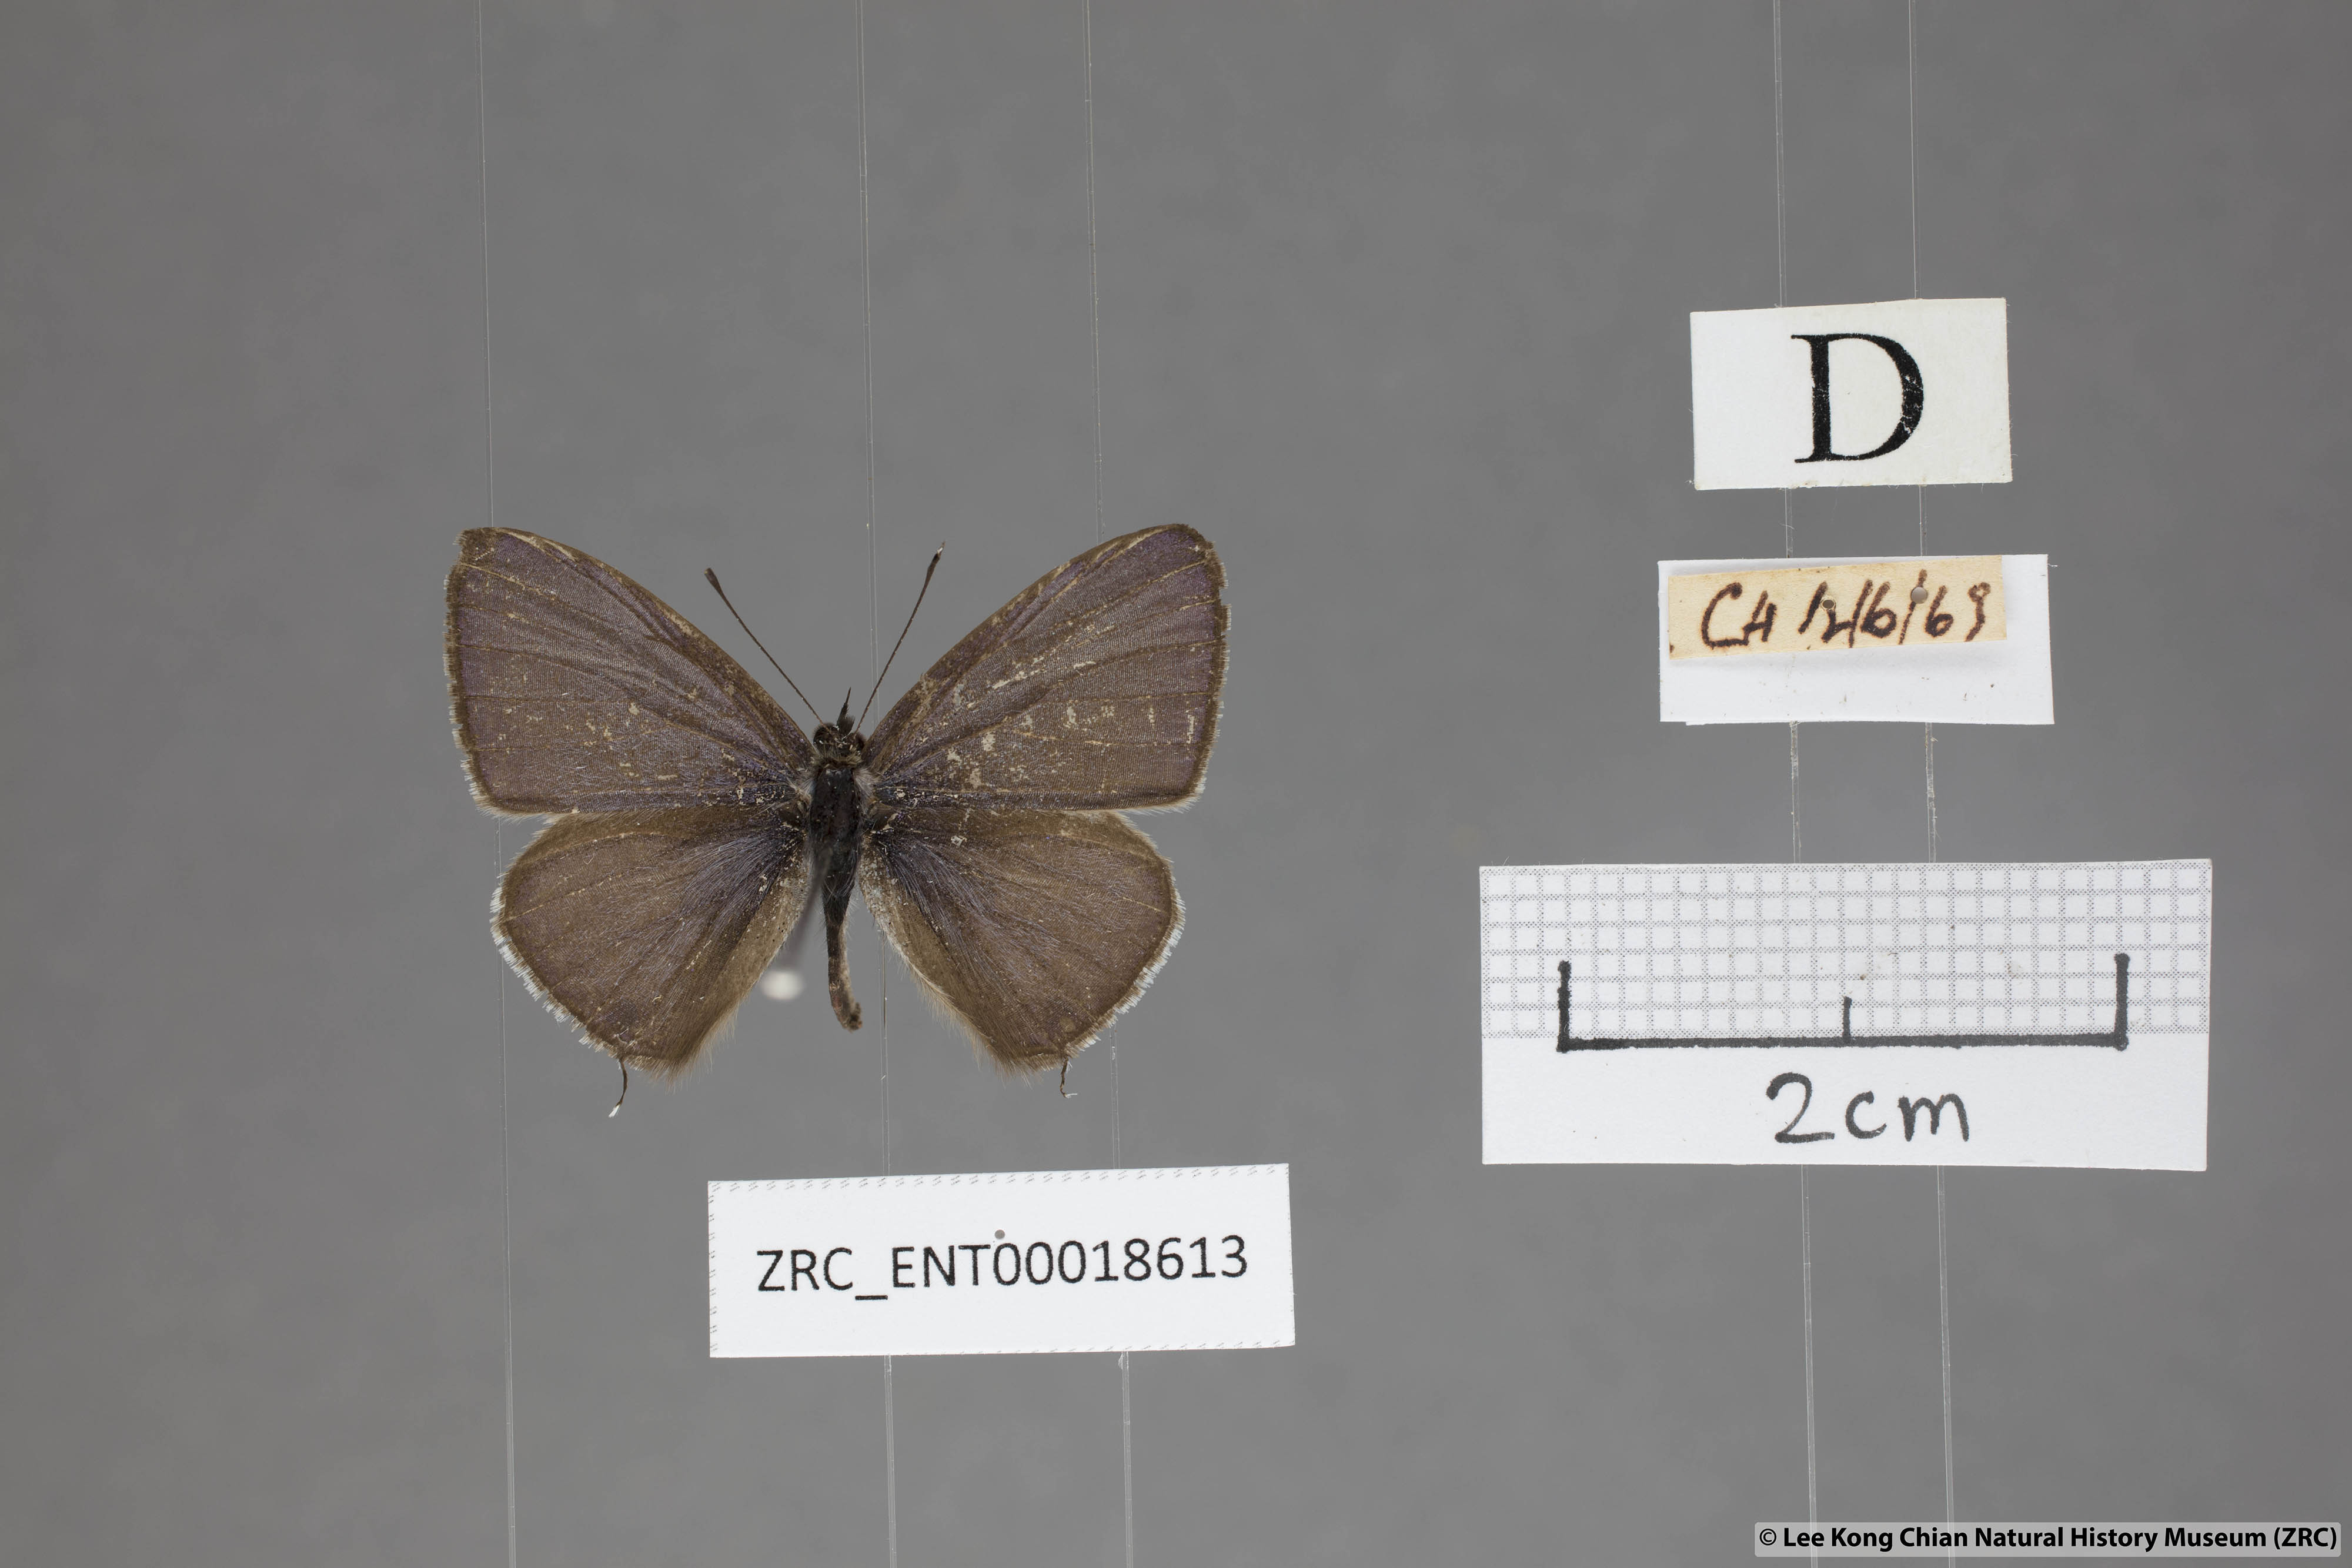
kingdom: Animalia
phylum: Arthropoda
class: Insecta
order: Lepidoptera
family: Lycaenidae
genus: Prosotas
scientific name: Prosotas nelides
